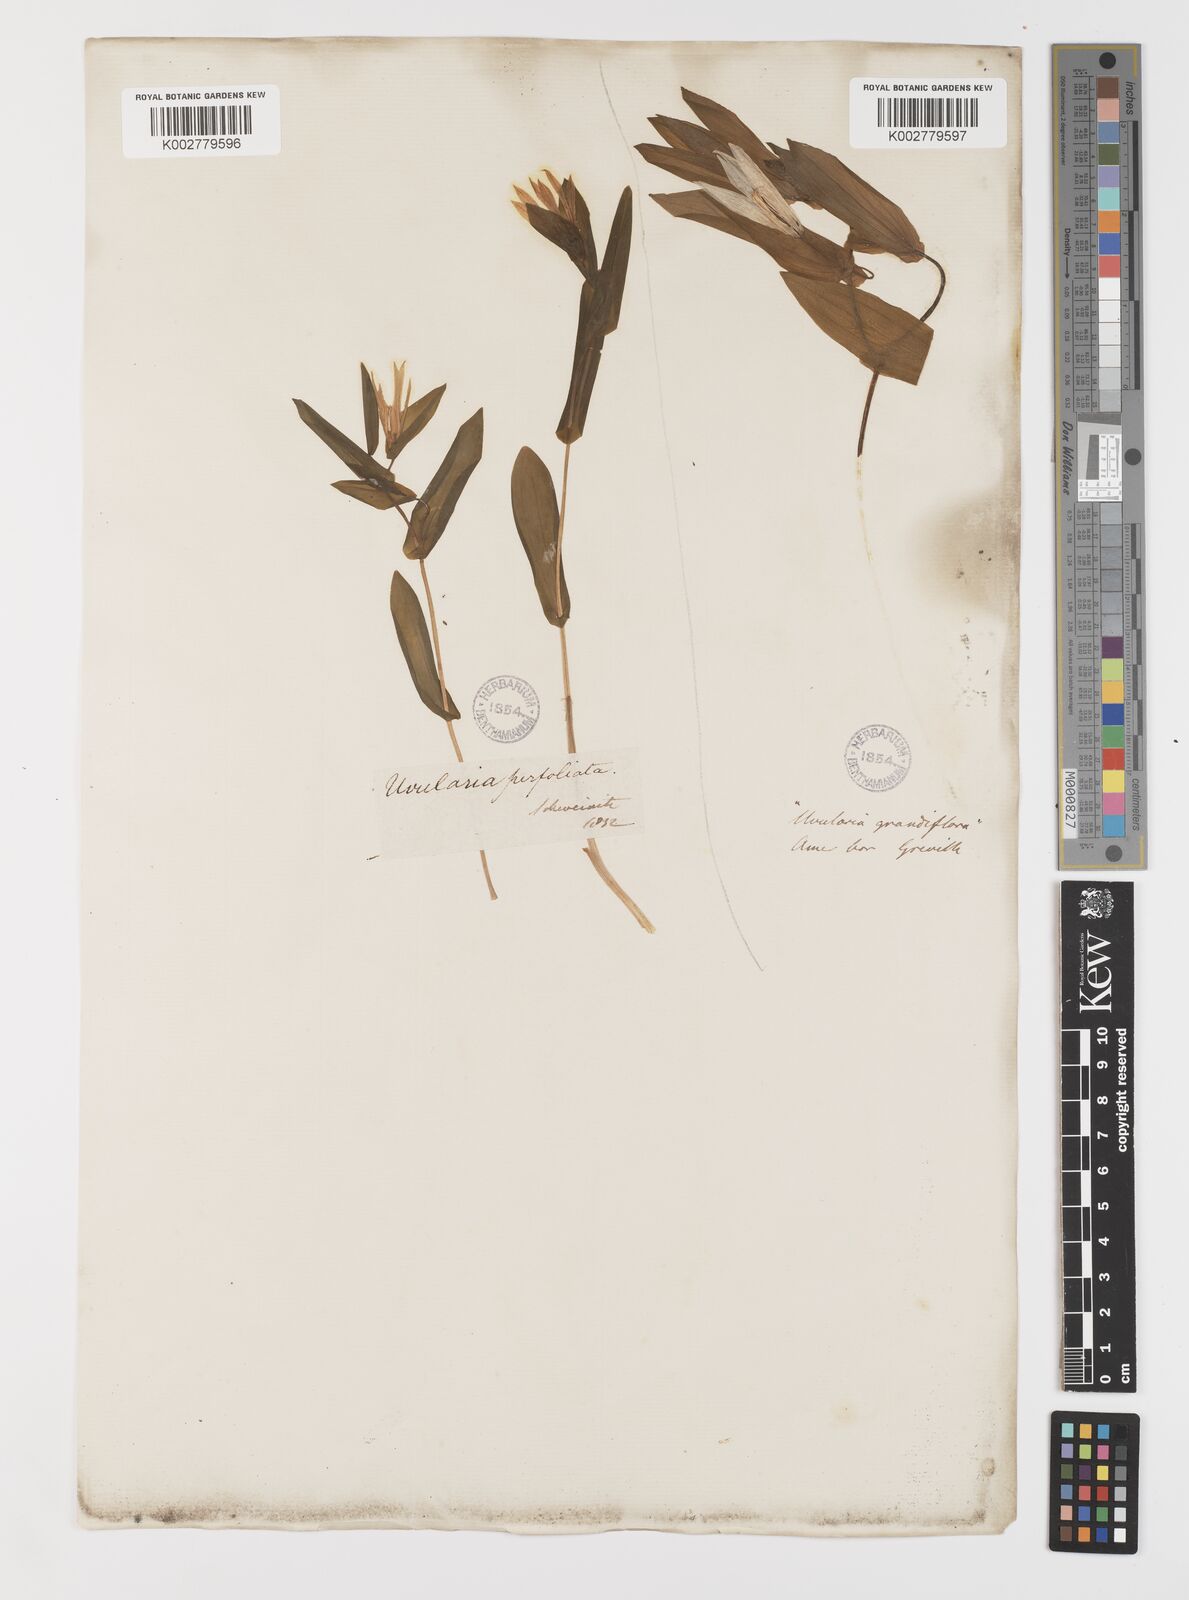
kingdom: Plantae
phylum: Tracheophyta
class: Liliopsida
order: Liliales
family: Colchicaceae
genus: Uvularia
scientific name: Uvularia perfoliata
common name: Perfoliate bellwort
